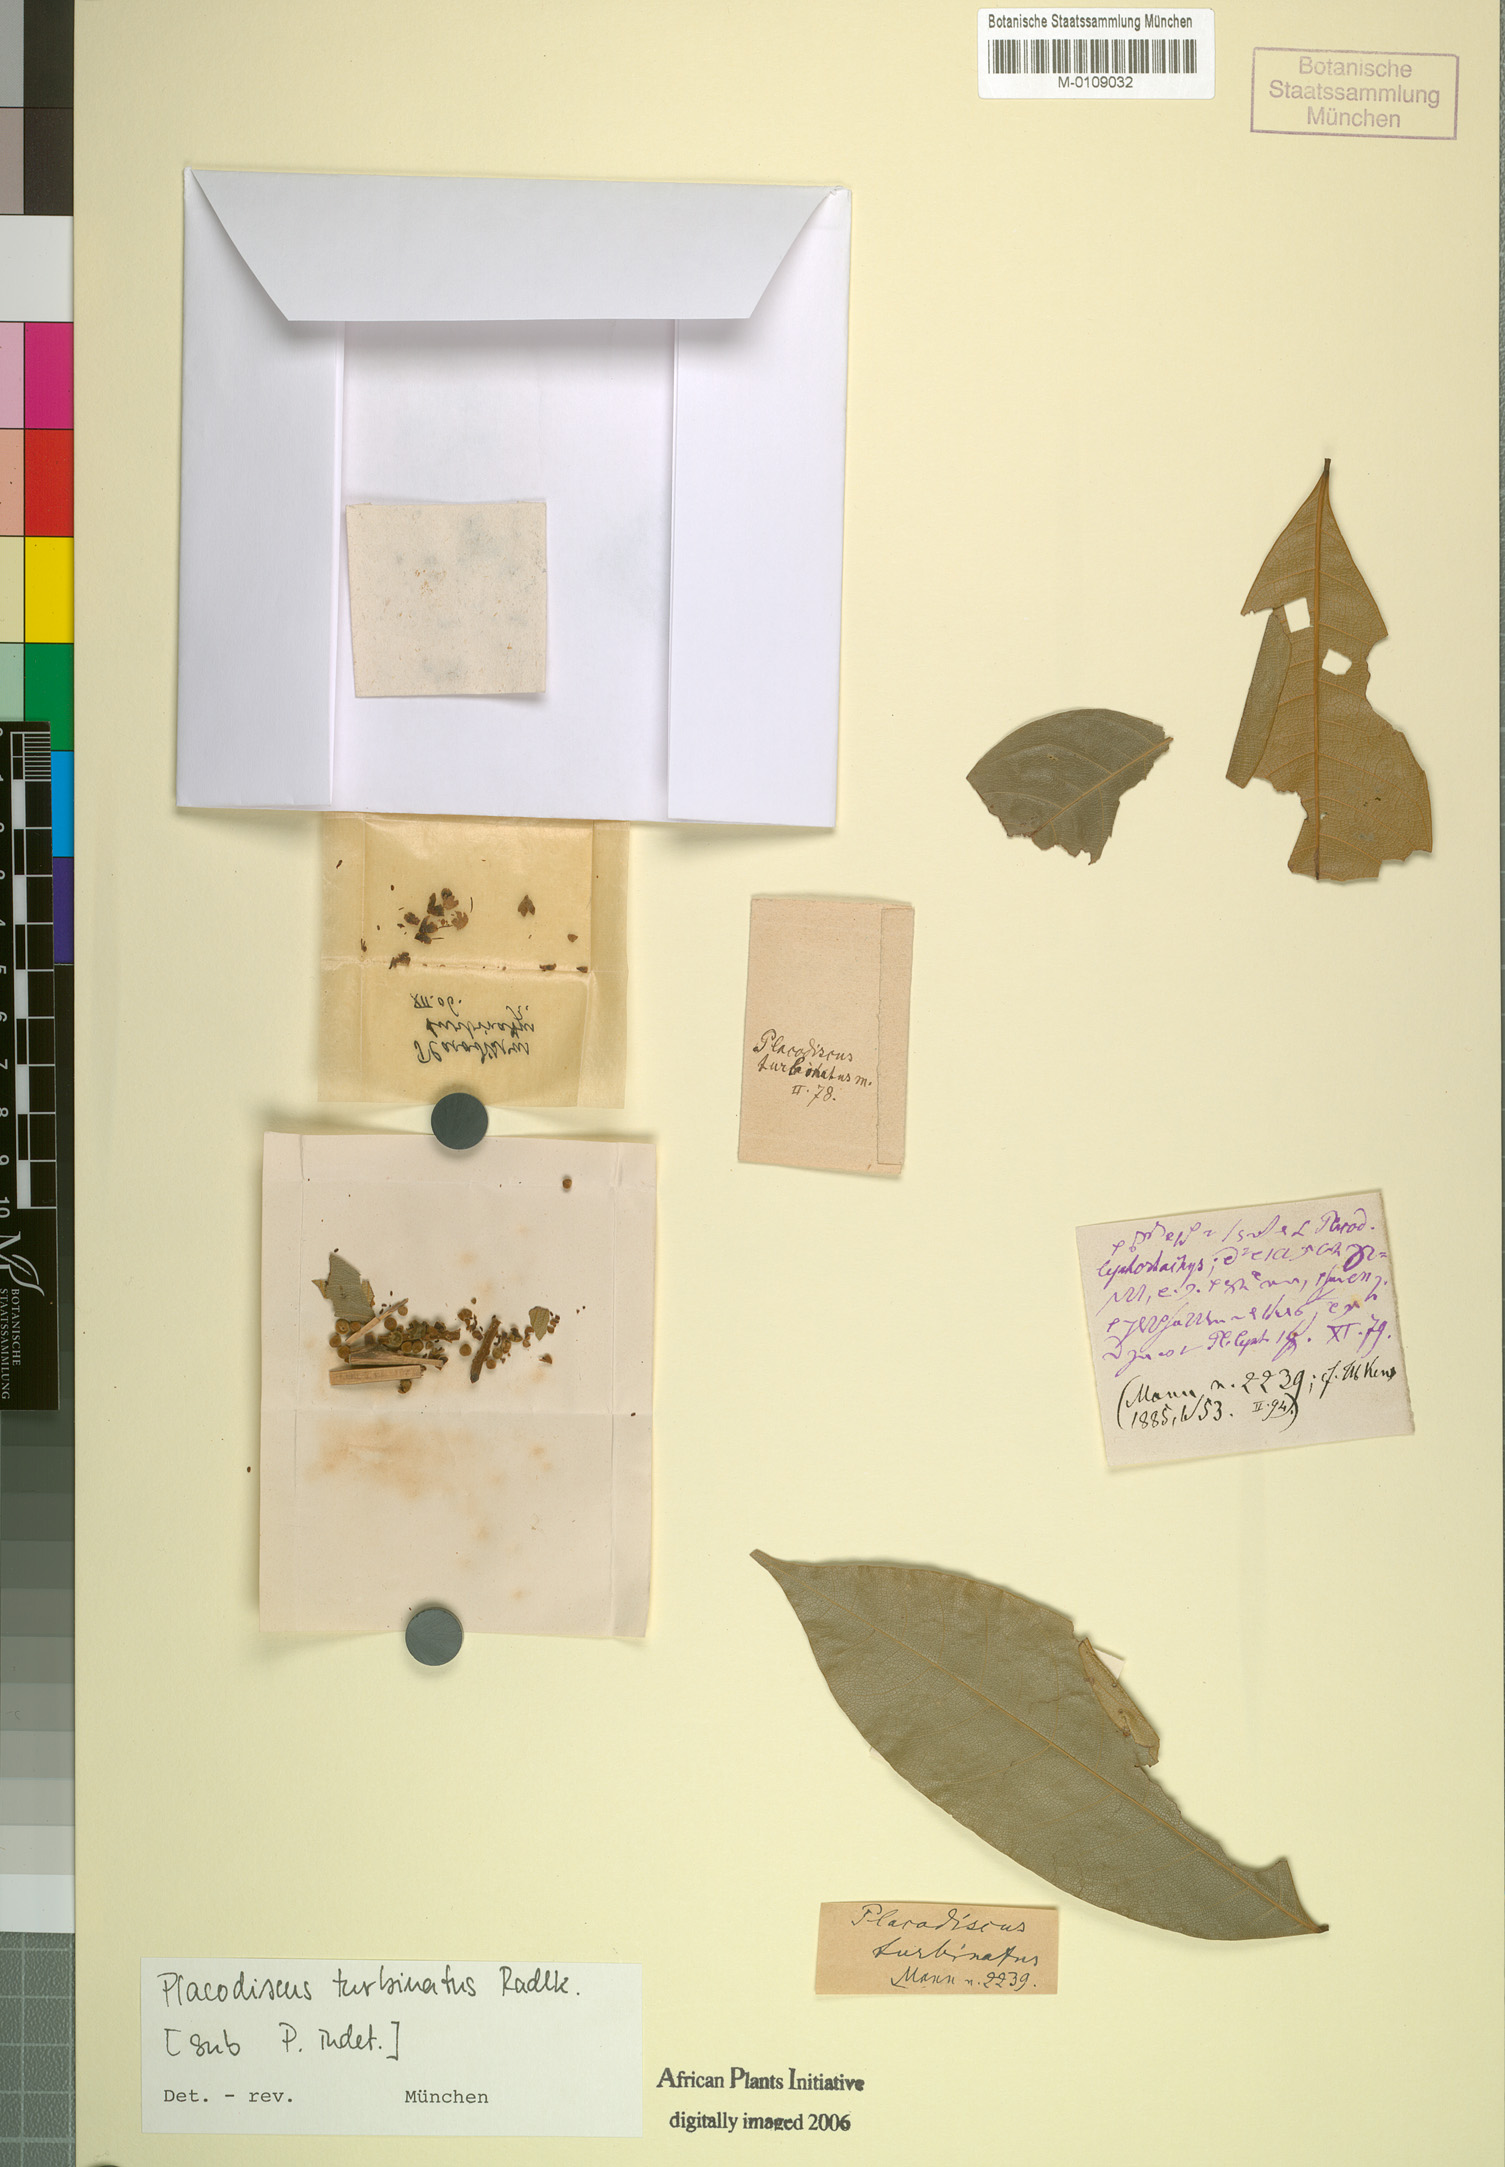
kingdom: Plantae
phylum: Tracheophyta
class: Magnoliopsida
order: Sapindales
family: Sapindaceae
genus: Placodiscus
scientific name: Placodiscus turbinatus
